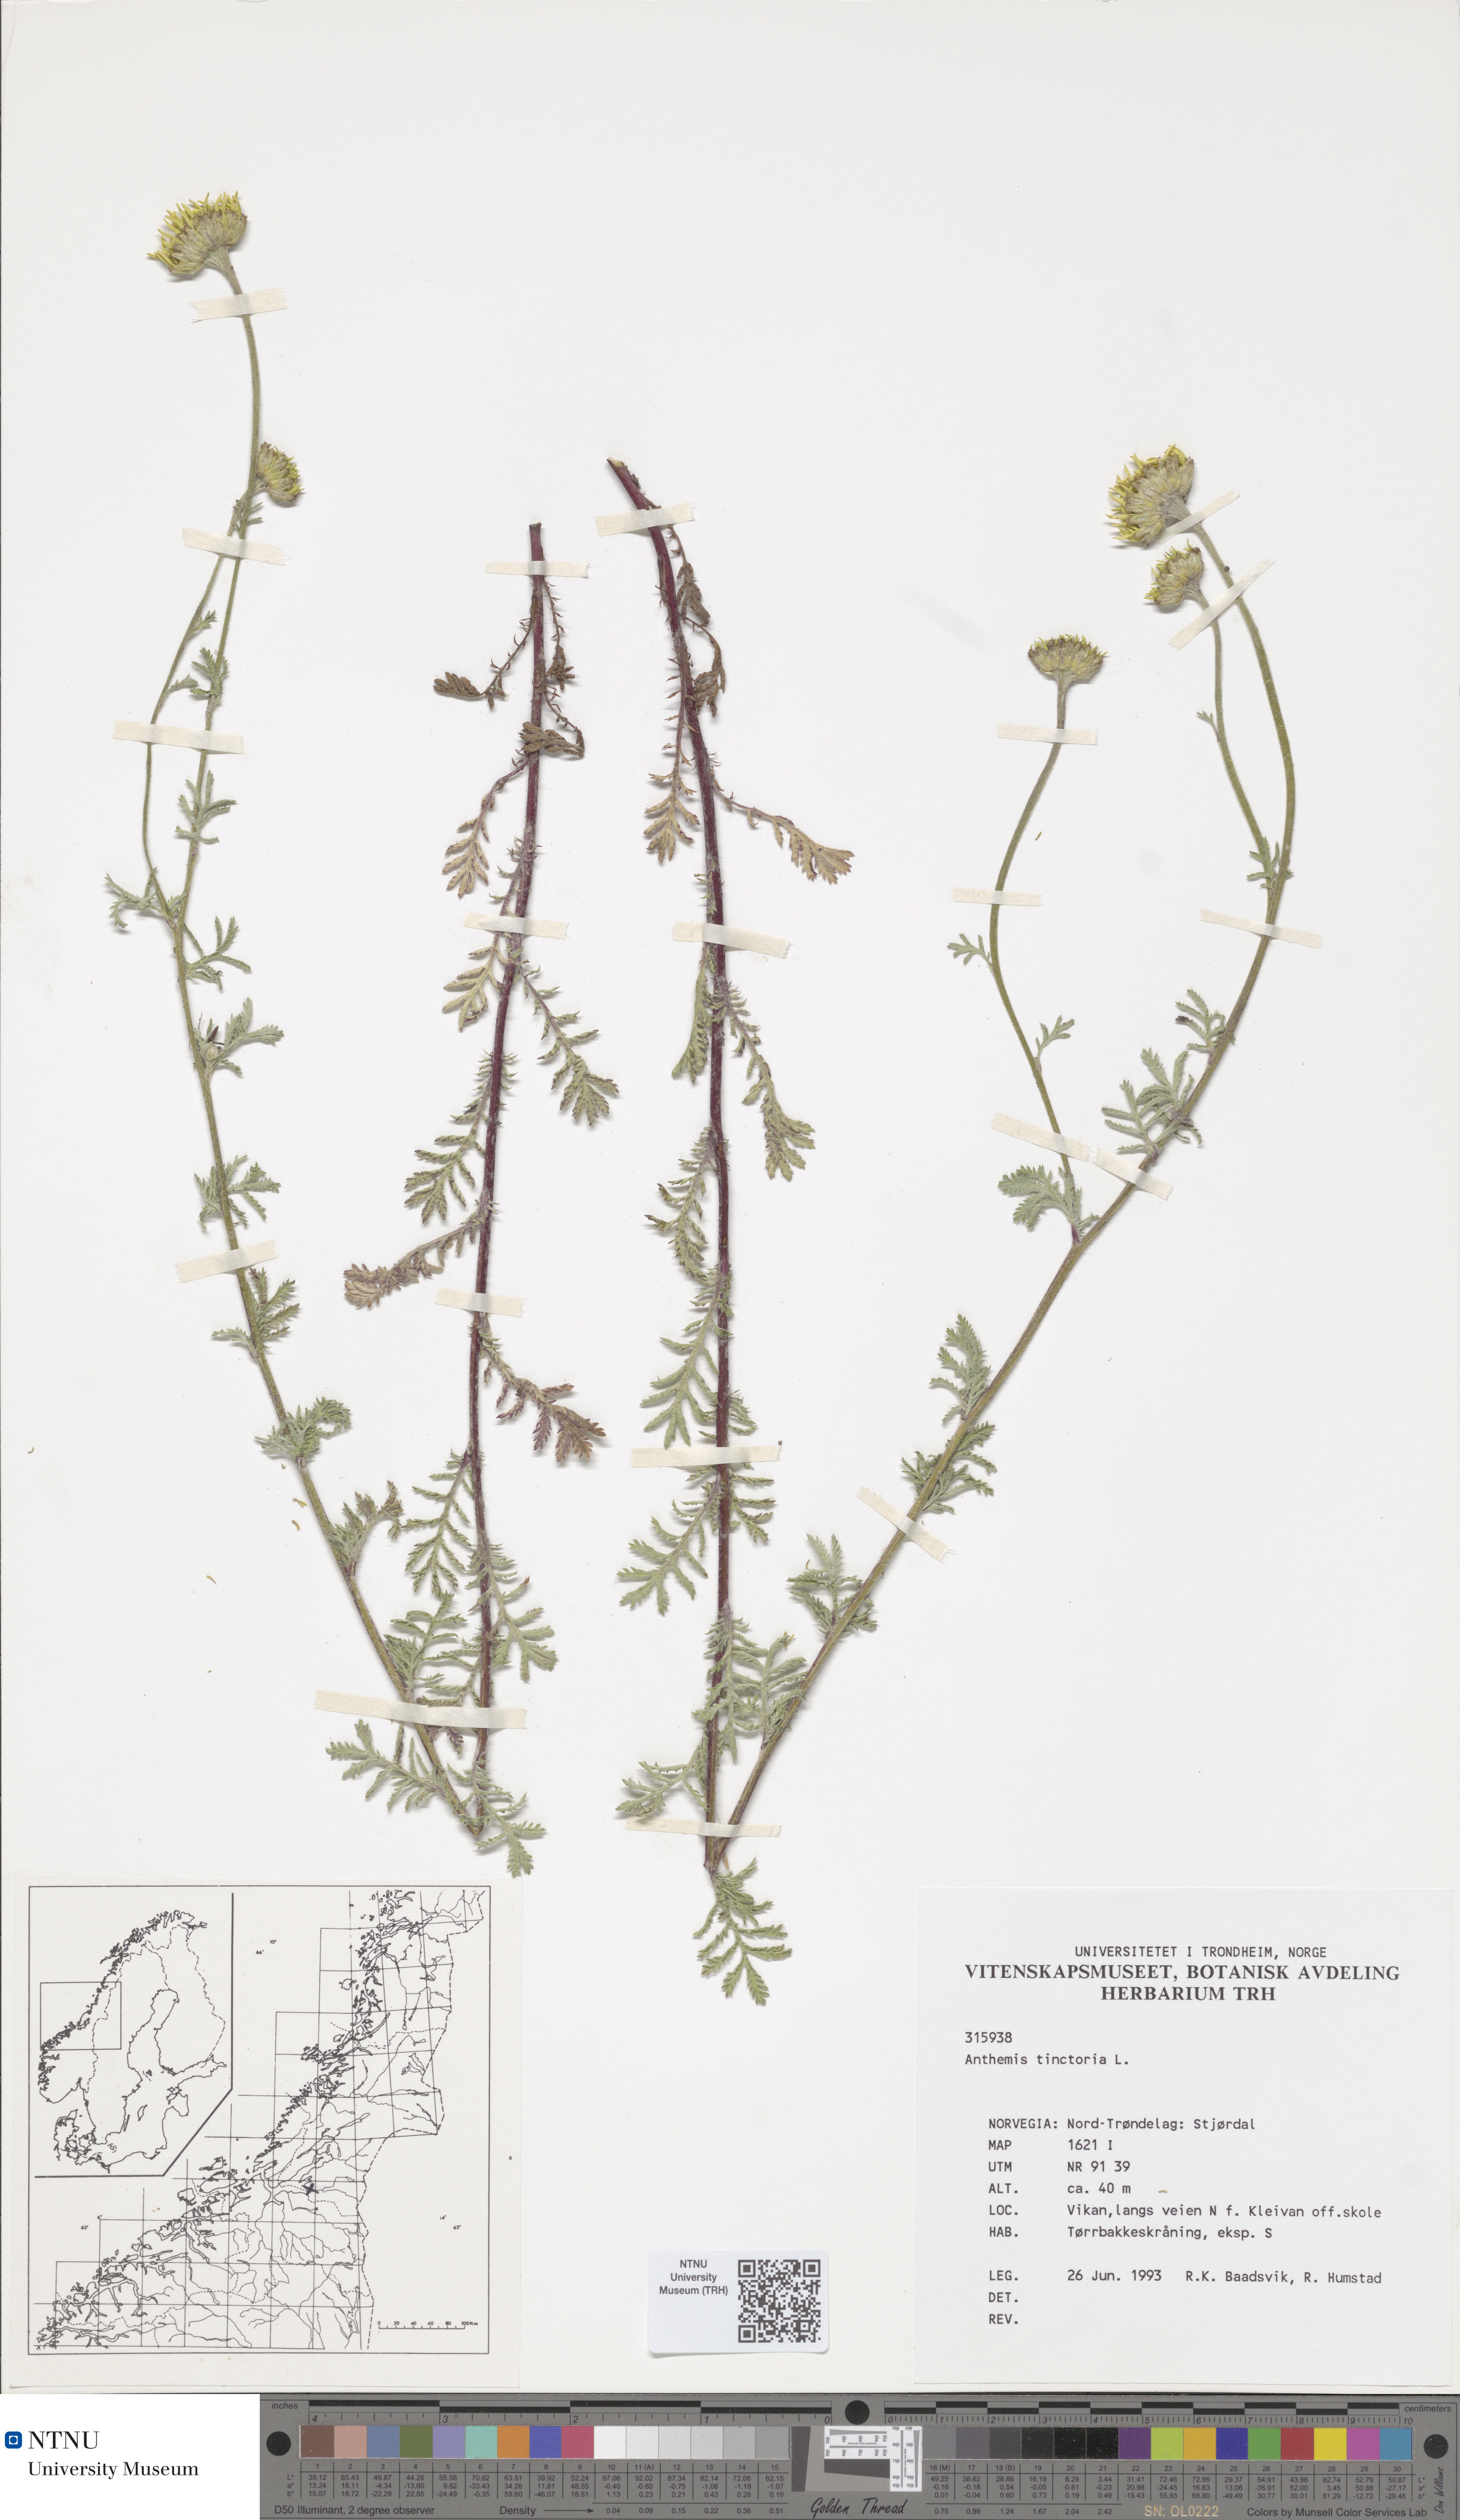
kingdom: Plantae
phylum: Tracheophyta
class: Magnoliopsida
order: Asterales
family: Asteraceae
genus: Cota
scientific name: Cota tinctoria
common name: Golden chamomile
